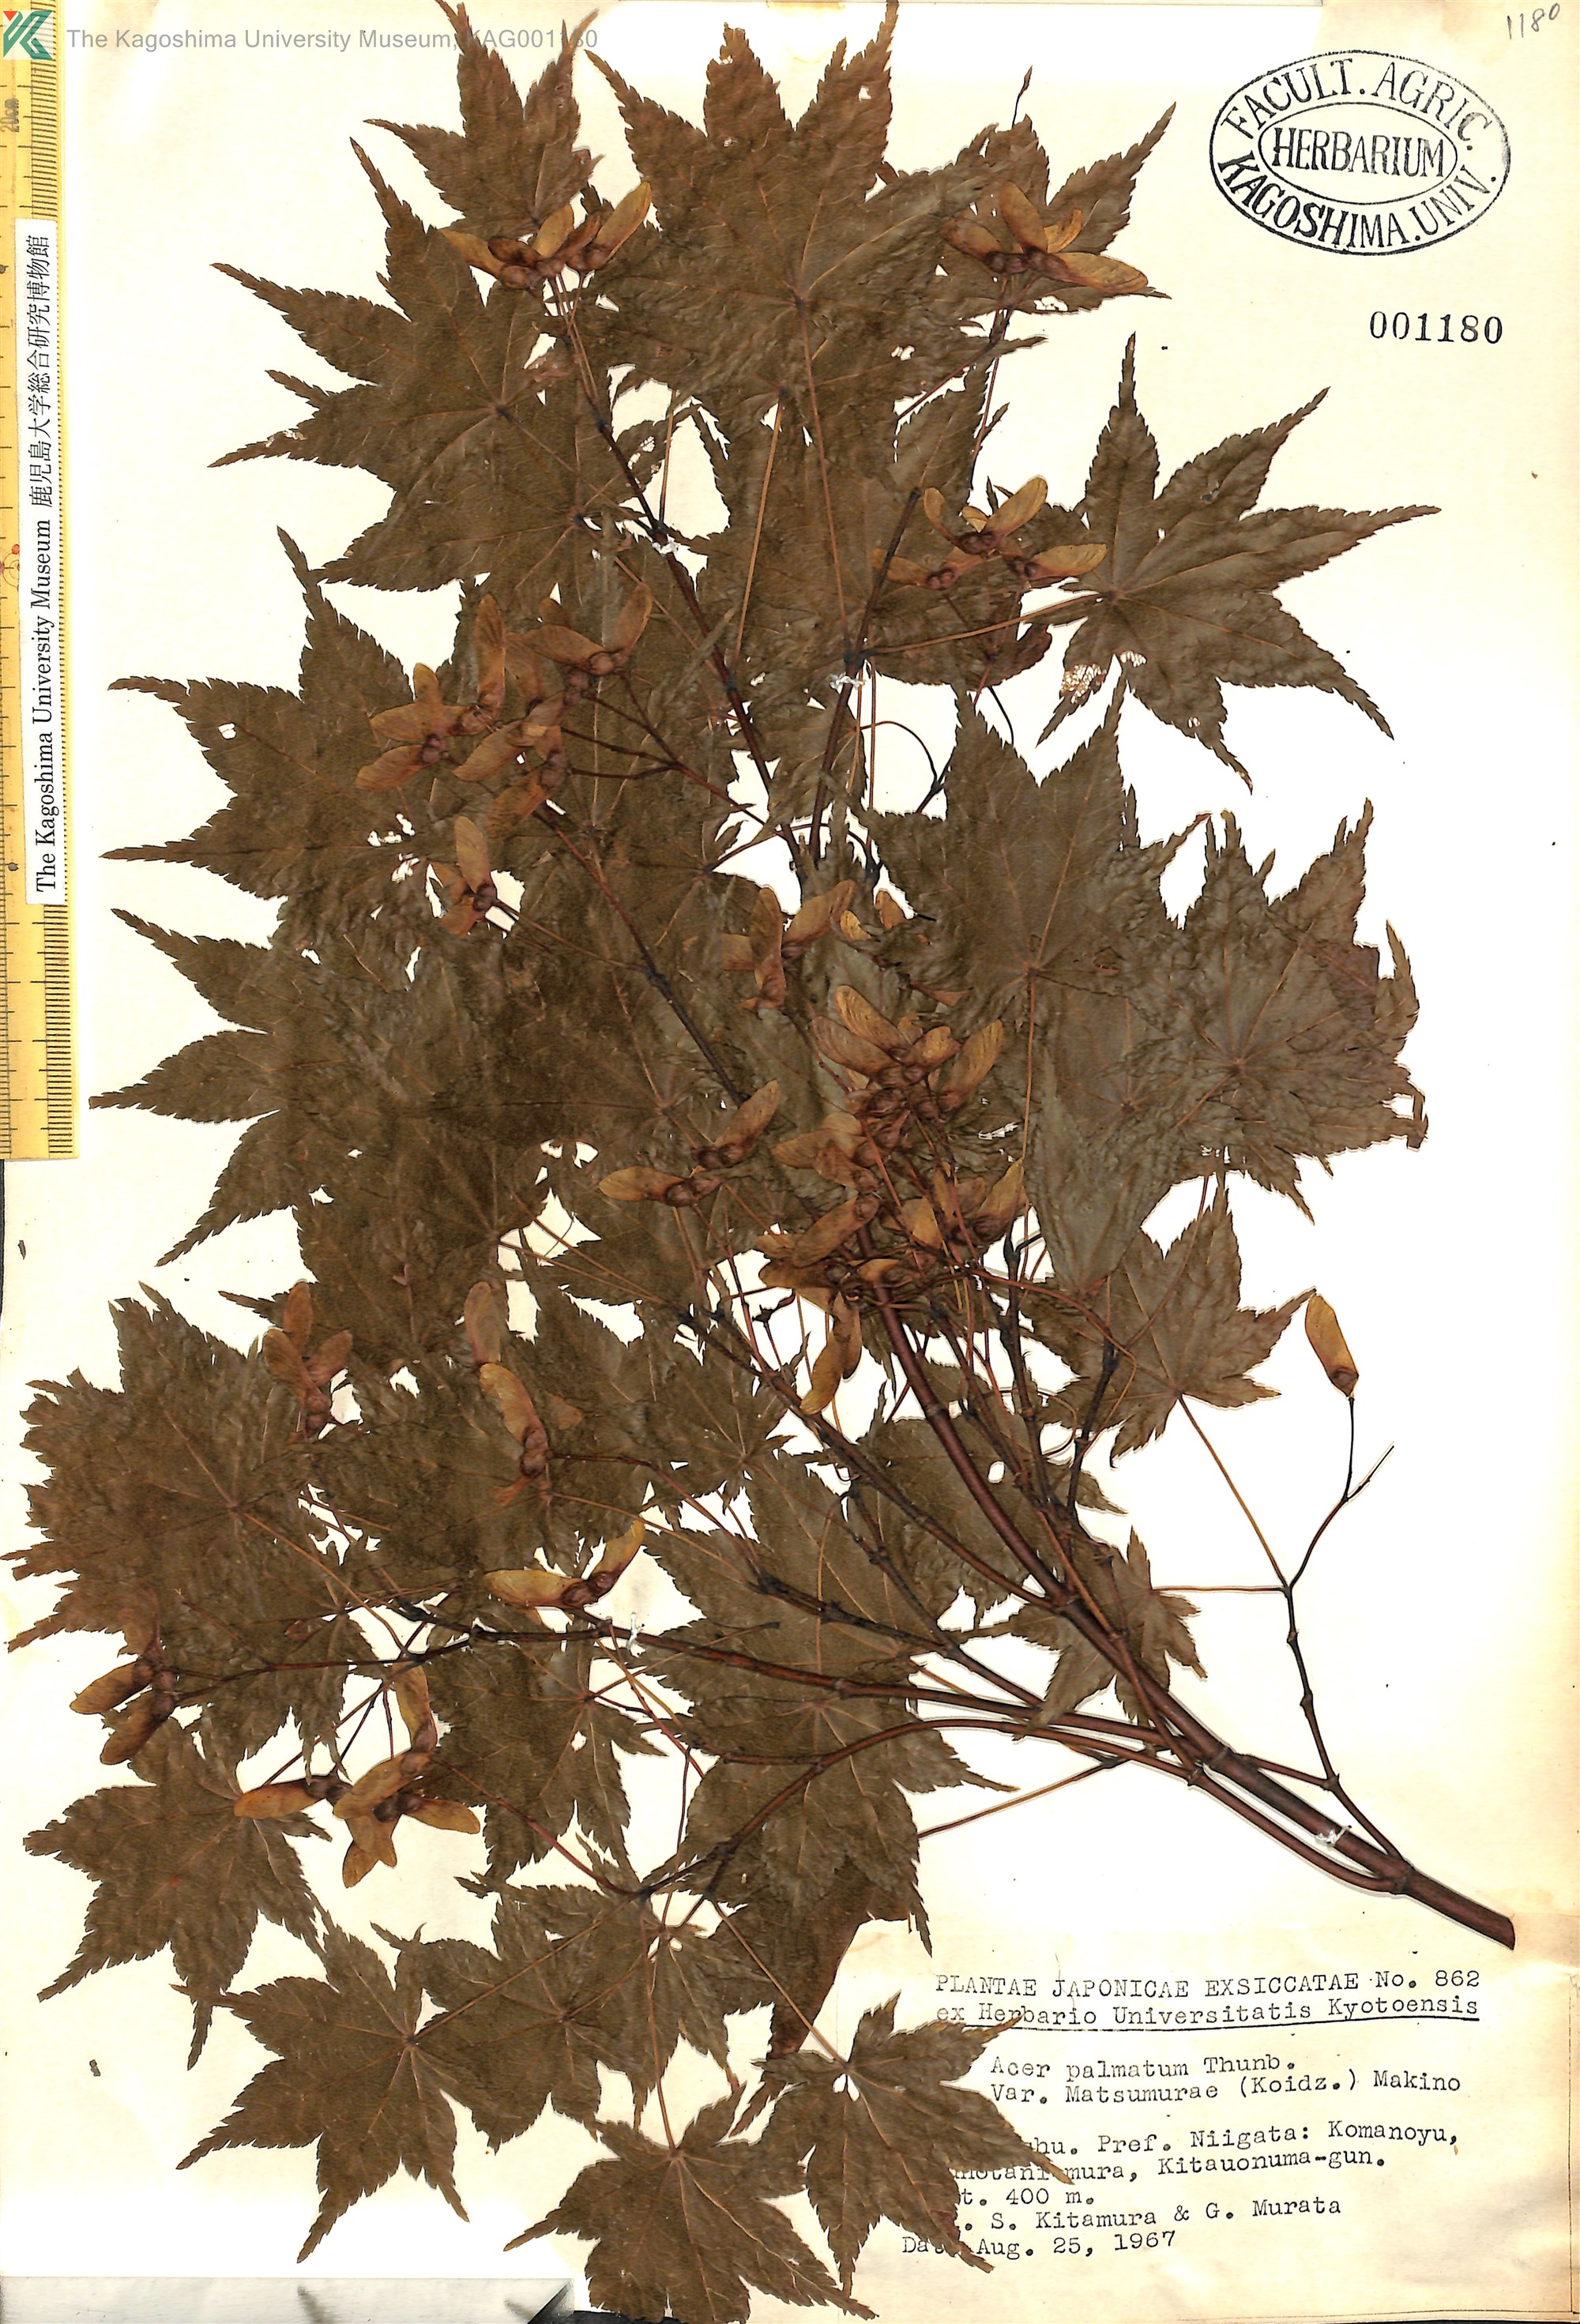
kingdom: Plantae
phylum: Tracheophyta
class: Magnoliopsida
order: Sapindales
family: Sapindaceae
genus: Acer
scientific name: Acer palmatum
